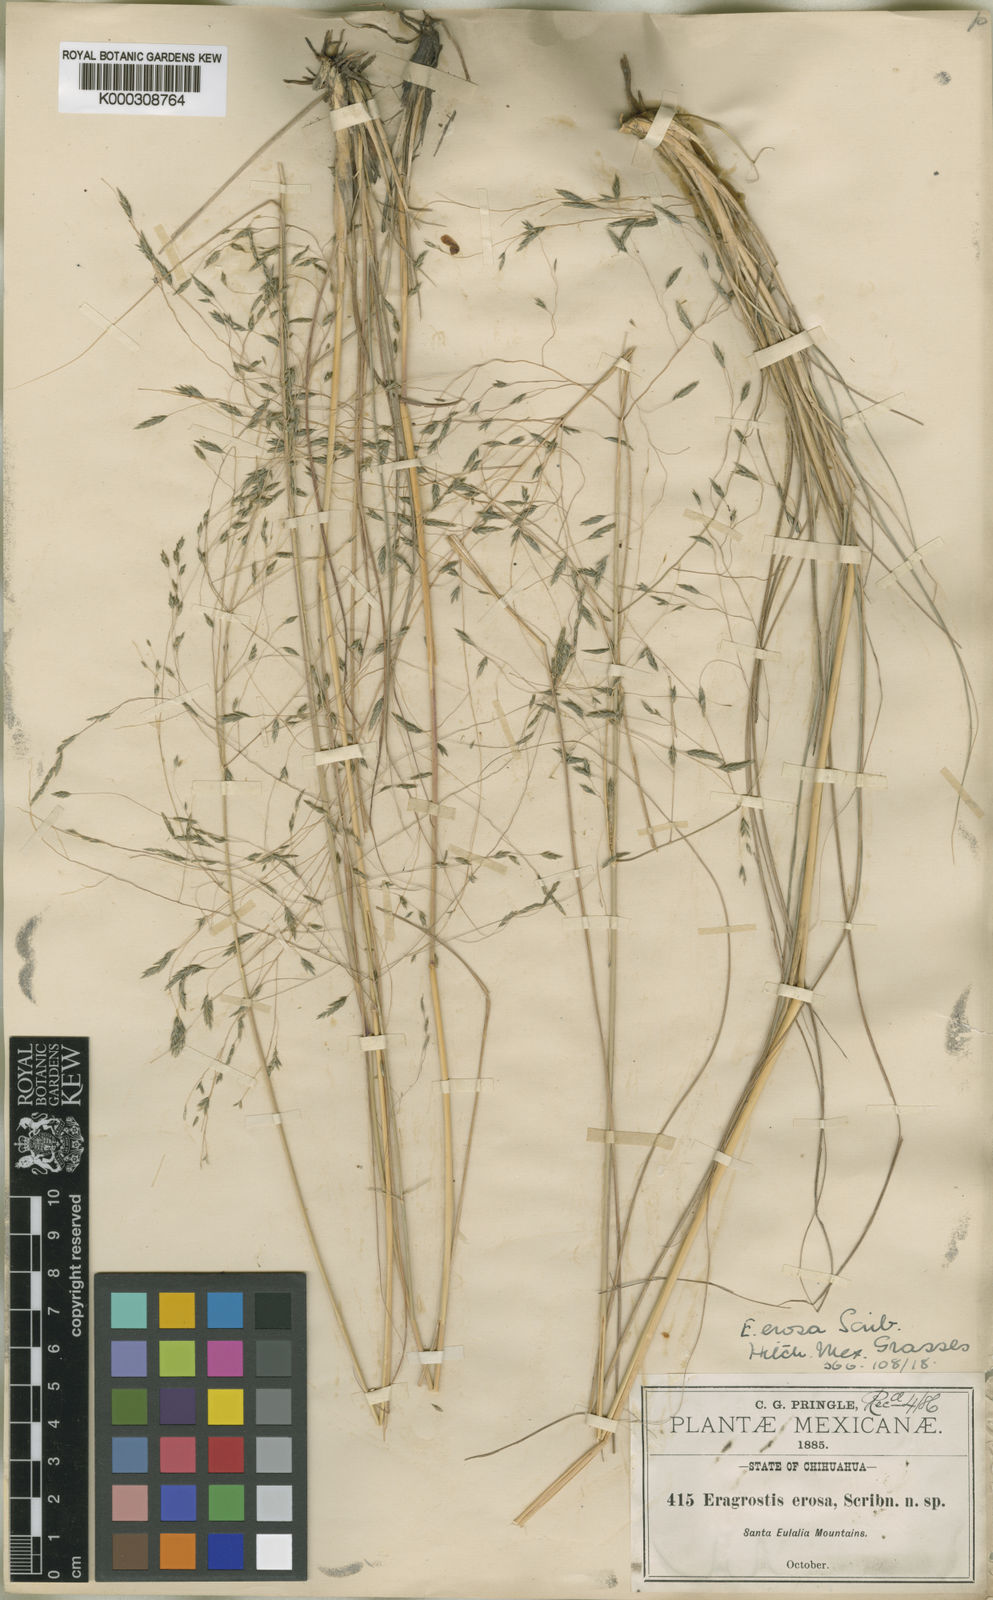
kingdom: Plantae
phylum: Tracheophyta
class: Liliopsida
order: Poales
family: Poaceae
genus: Eragrostis
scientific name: Eragrostis erosa
